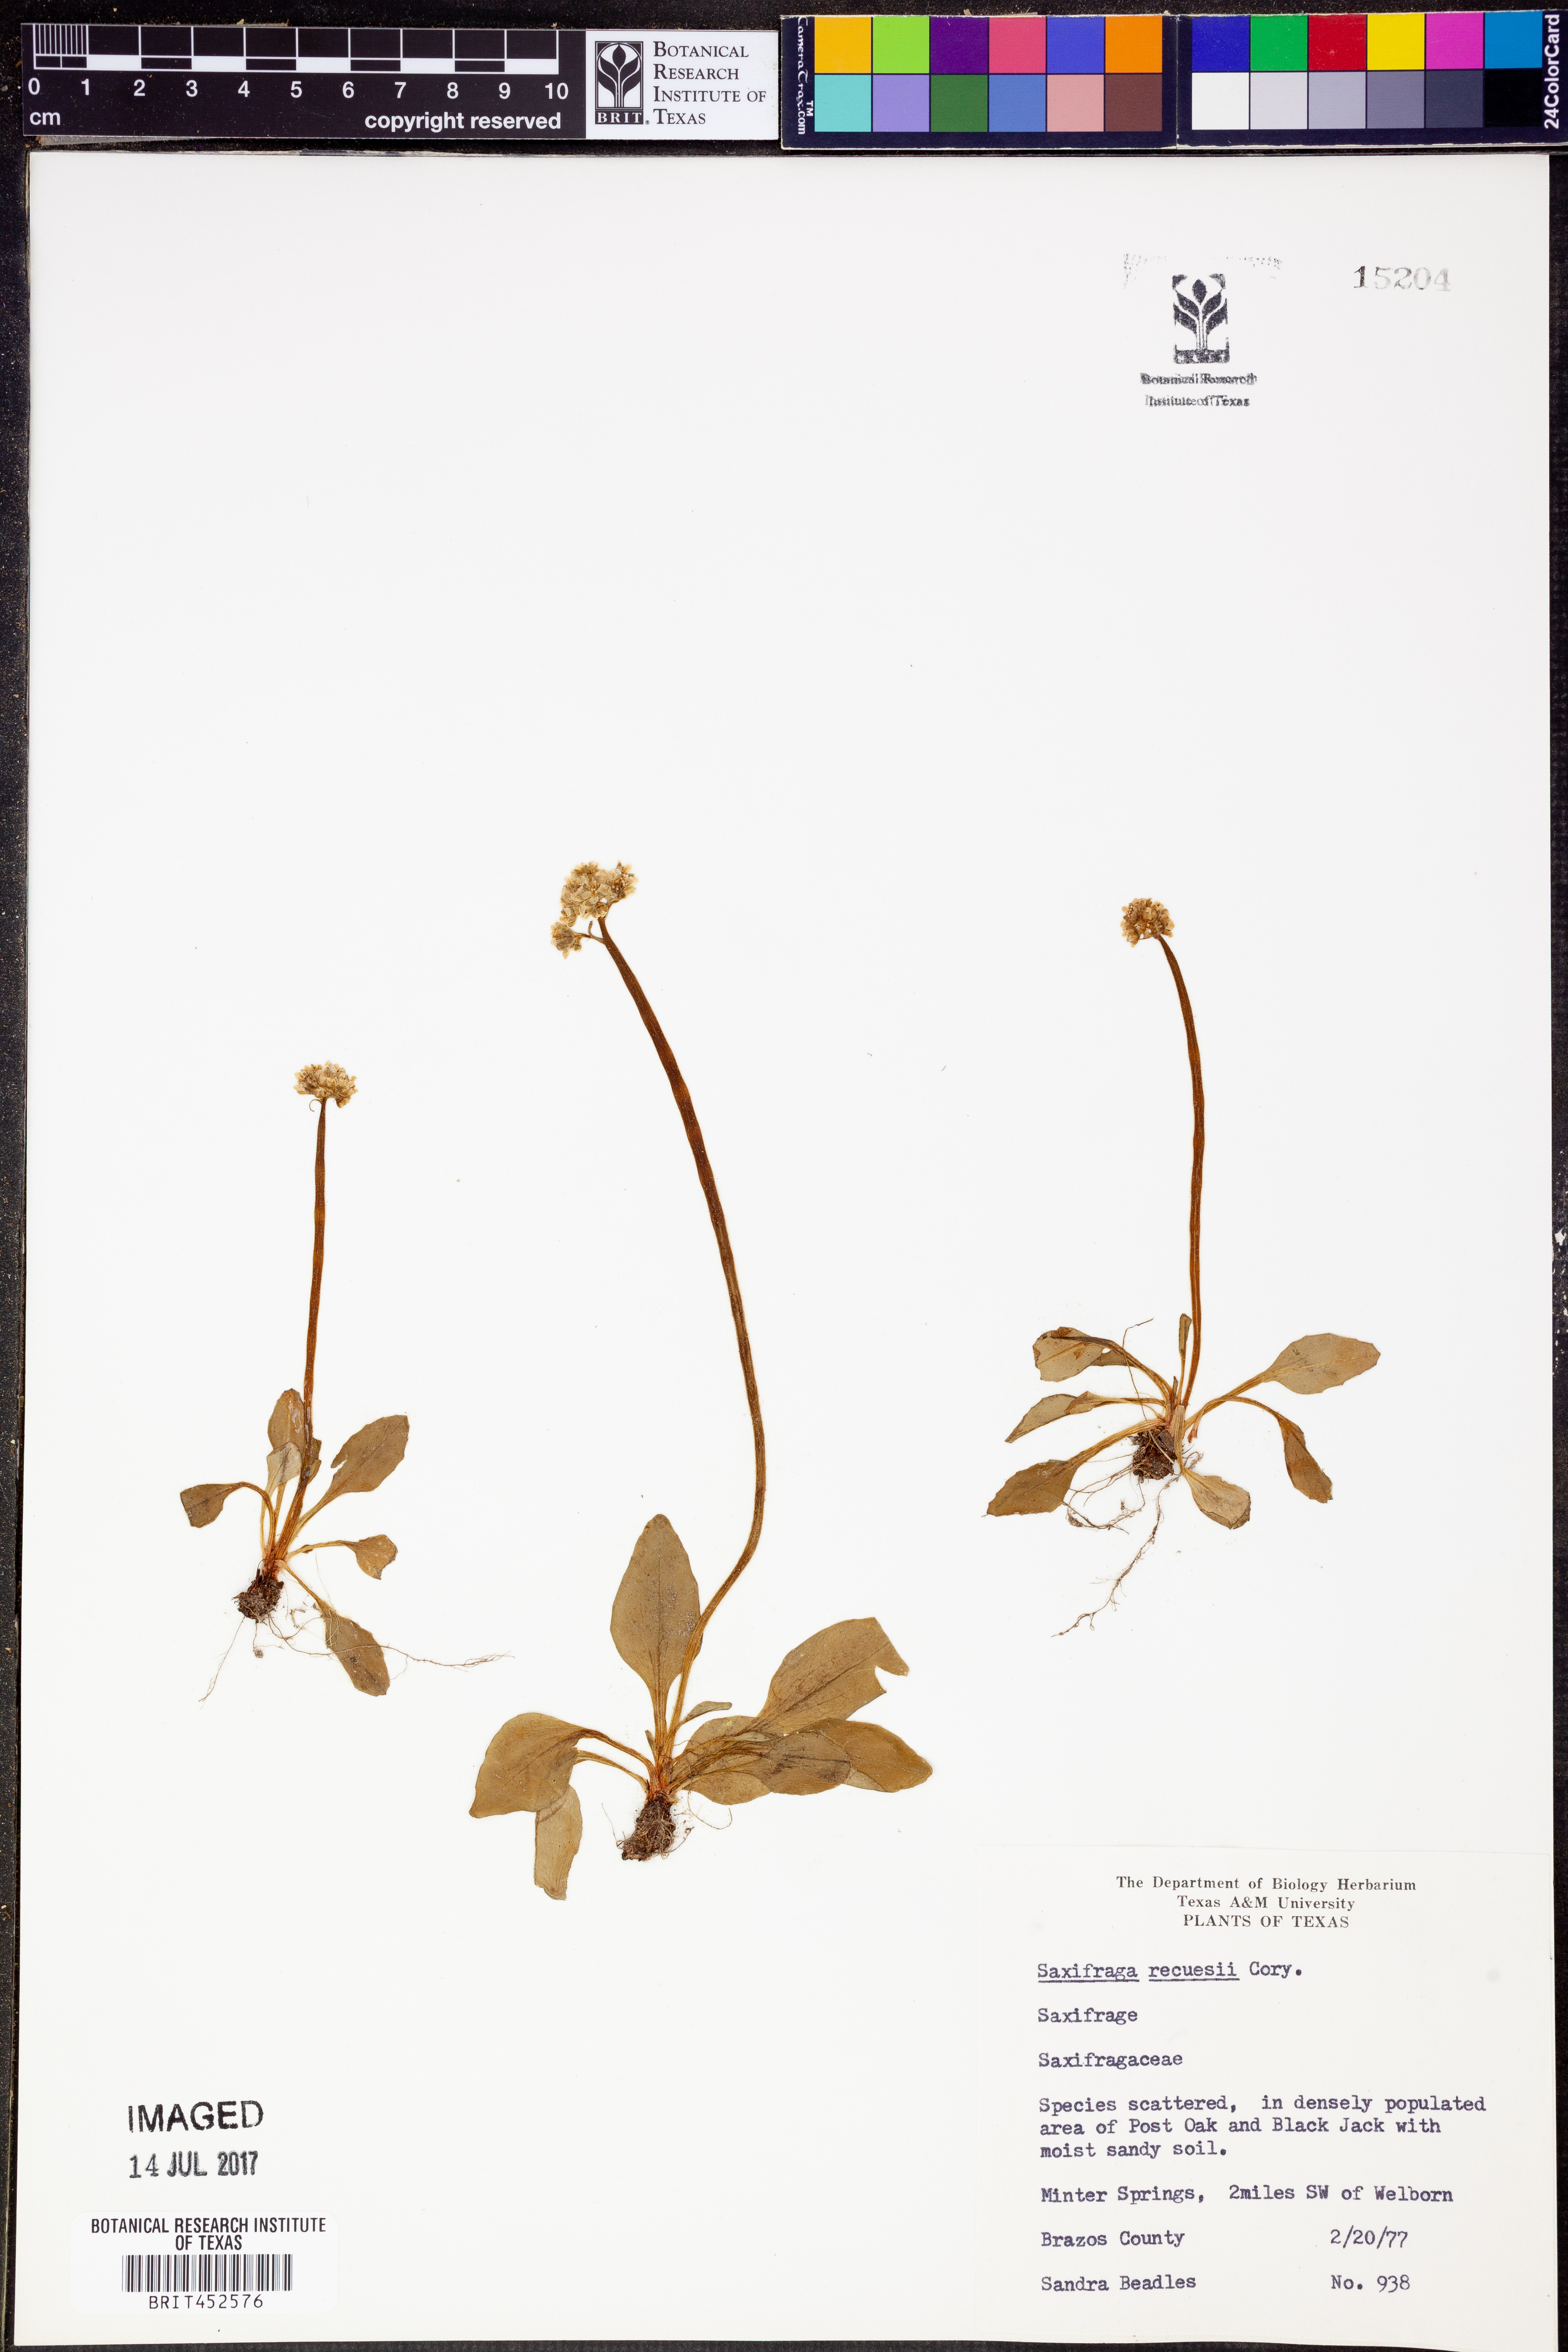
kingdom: Plantae
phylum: Tracheophyta
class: Magnoliopsida
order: Saxifragales
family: Saxifragaceae
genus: Micranthes
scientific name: Micranthes texana
